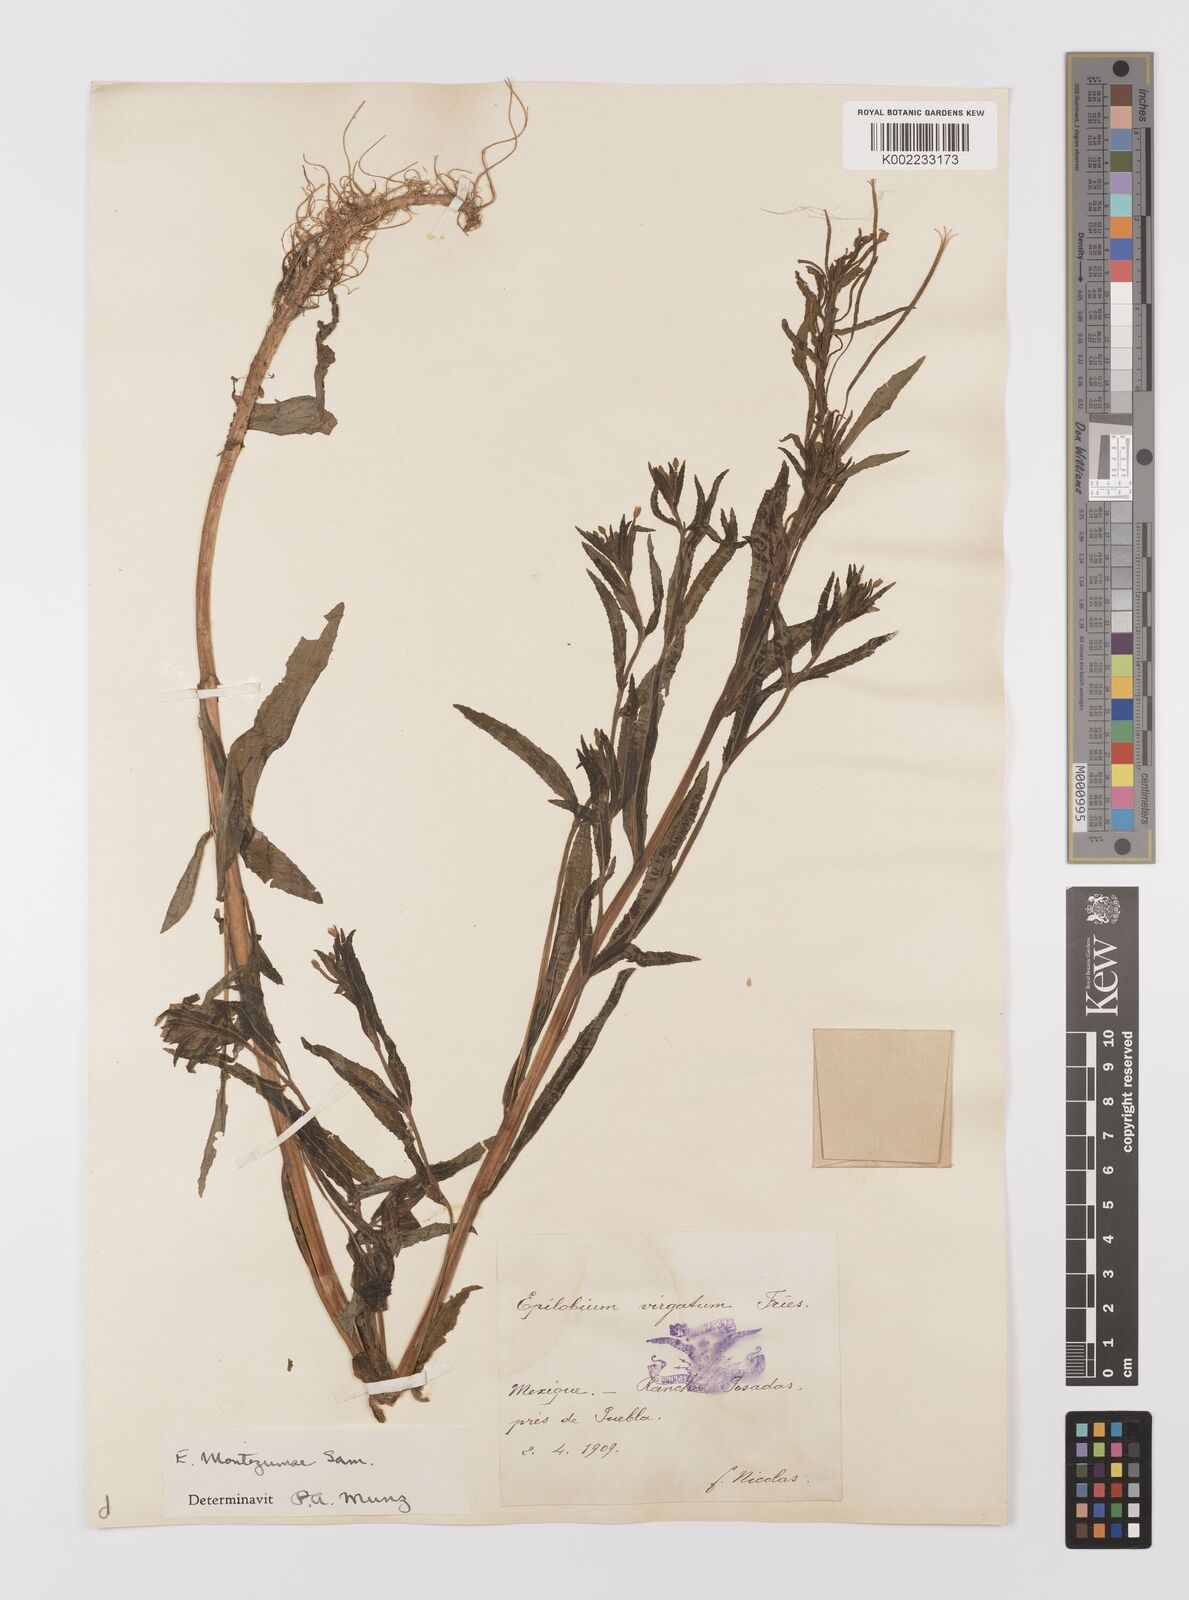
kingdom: Plantae
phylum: Tracheophyta
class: Magnoliopsida
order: Myrtales
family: Onagraceae
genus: Epilobium
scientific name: Epilobium
